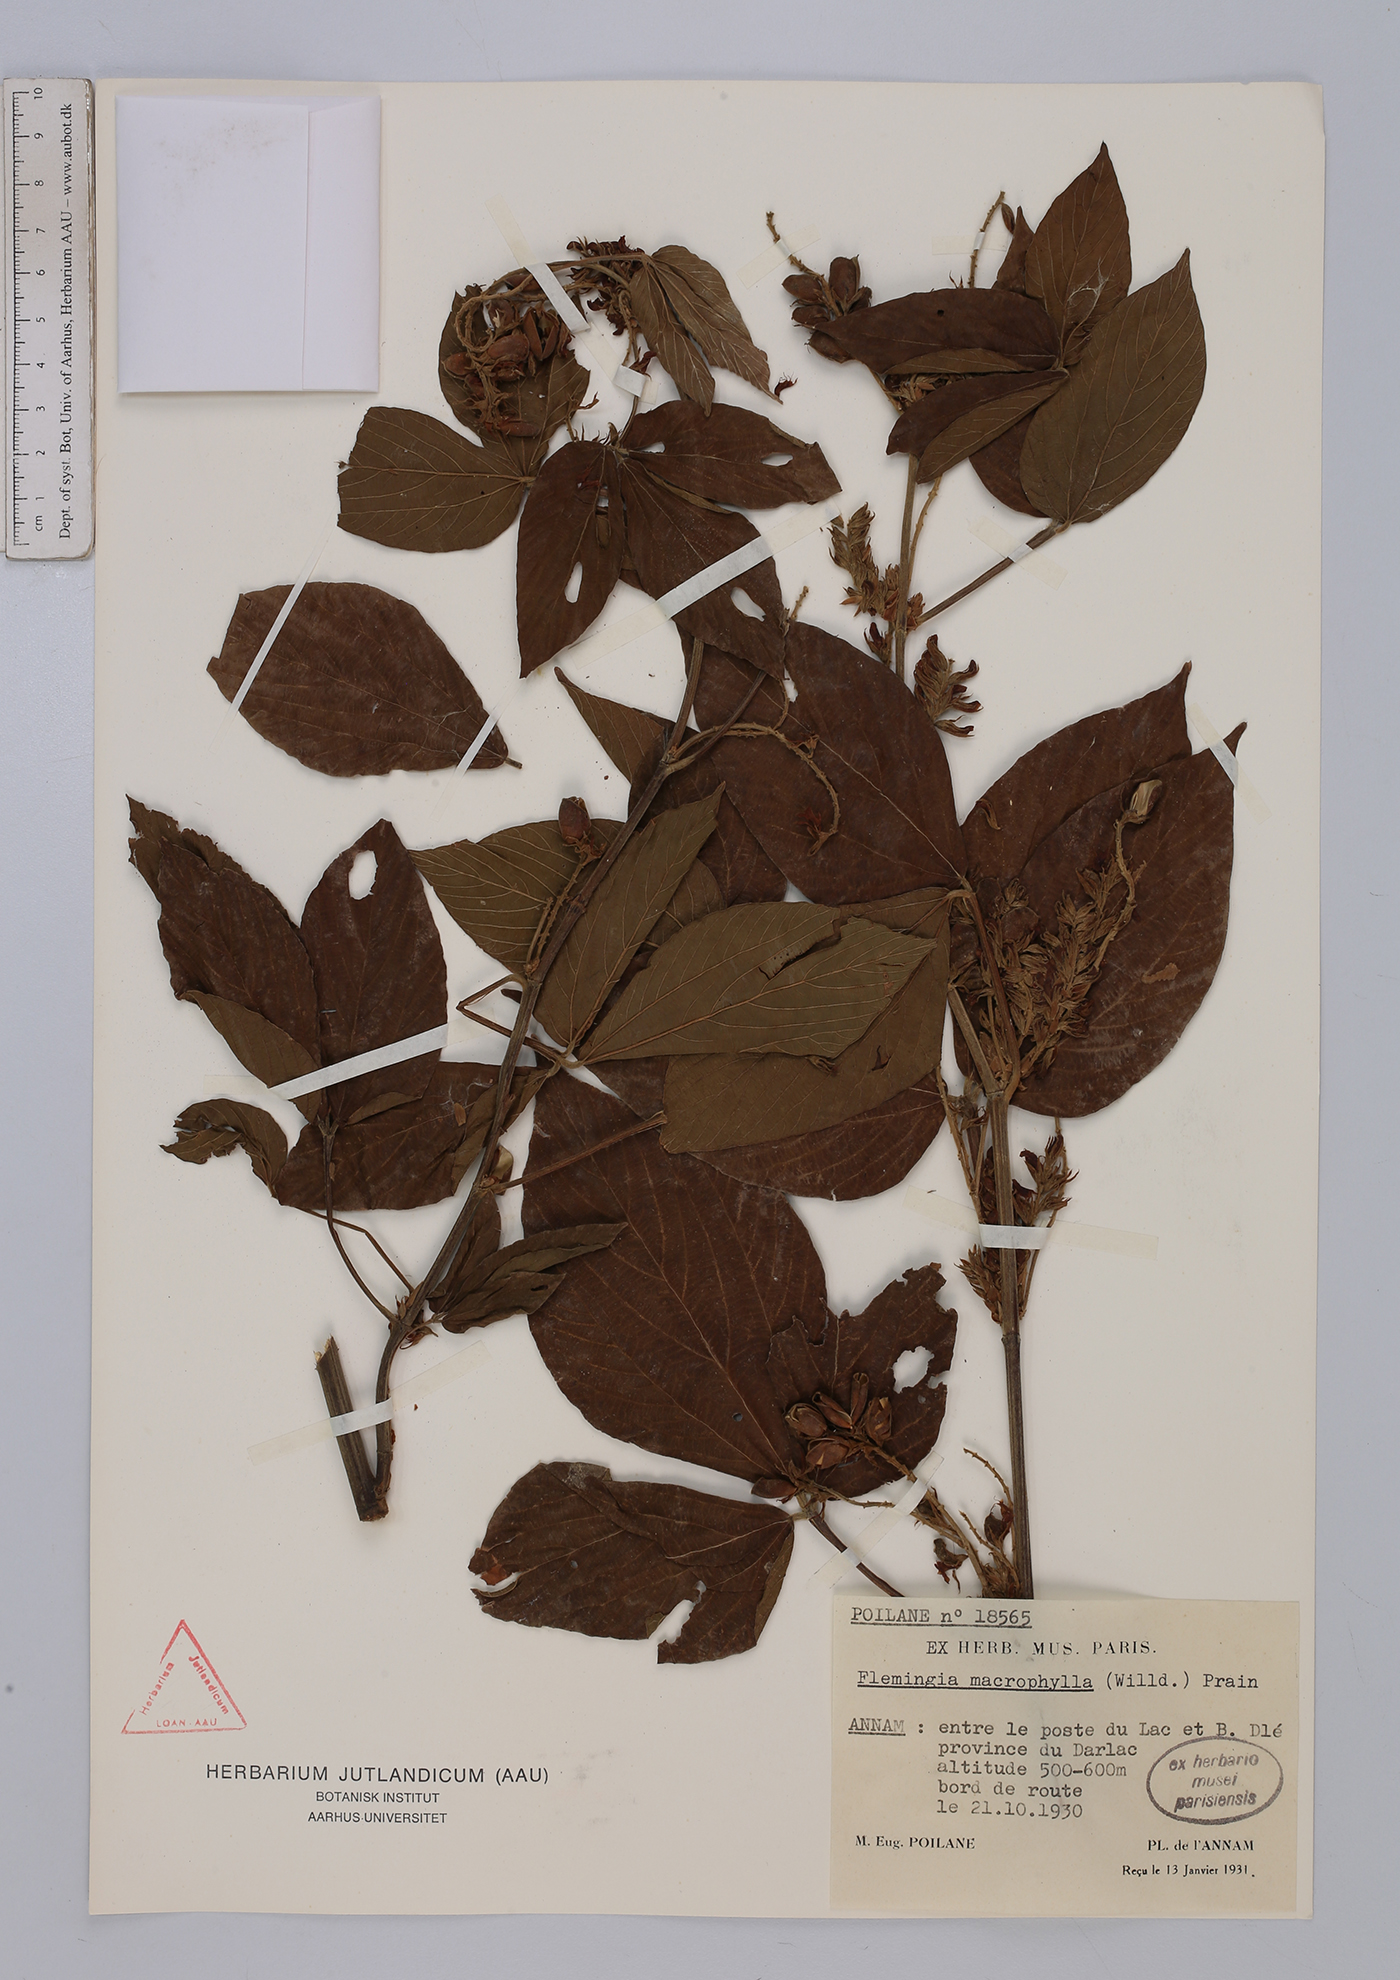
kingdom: Plantae
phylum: Tracheophyta
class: Magnoliopsida
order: Fabales
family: Fabaceae
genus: Flemingia
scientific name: Flemingia macrophylla
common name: Flemingia
